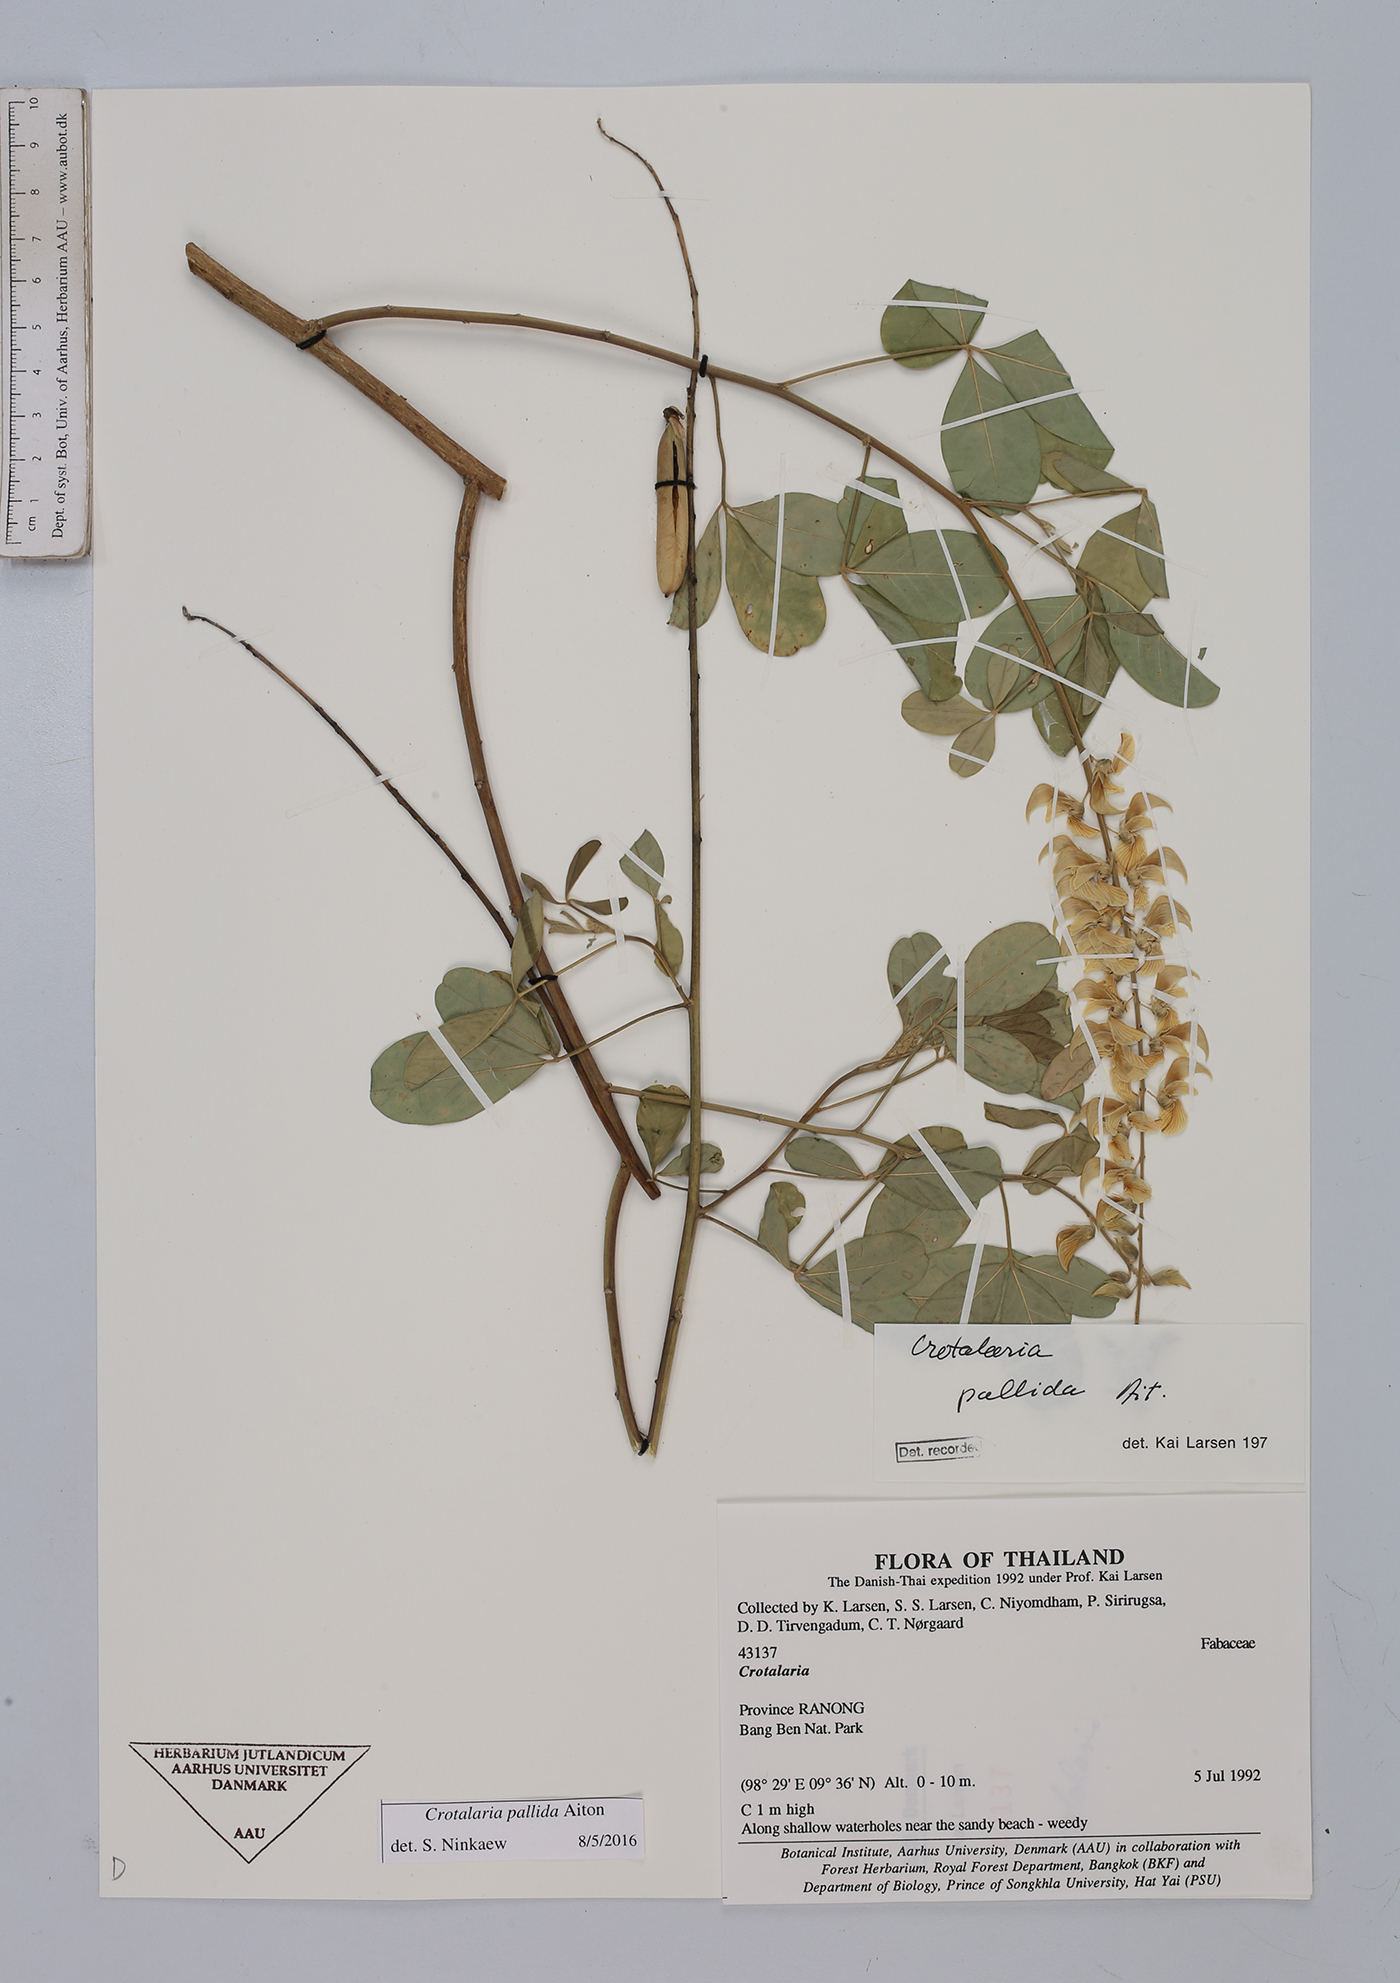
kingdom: Plantae
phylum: Tracheophyta
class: Magnoliopsida
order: Fabales
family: Fabaceae
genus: Crotalaria
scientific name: Crotalaria pallida
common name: Smooth rattlebox
